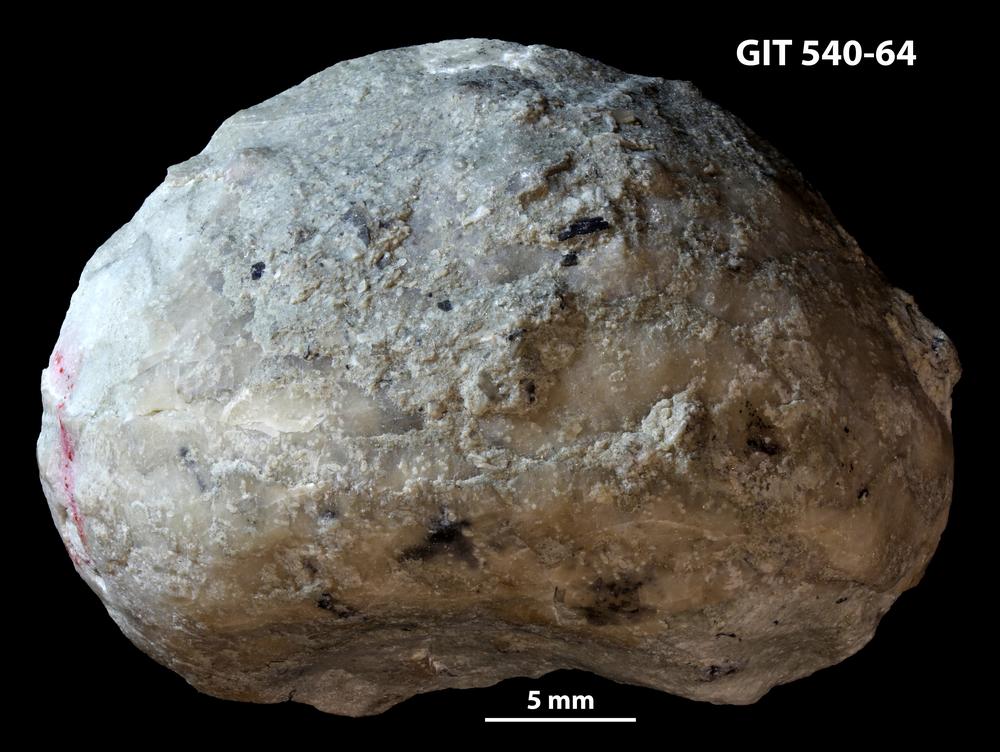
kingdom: Animalia
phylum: Echinodermata
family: Sphaeronitidae
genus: Eucystis
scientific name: Eucystis Glyptosphaerites leuchtenbergi
